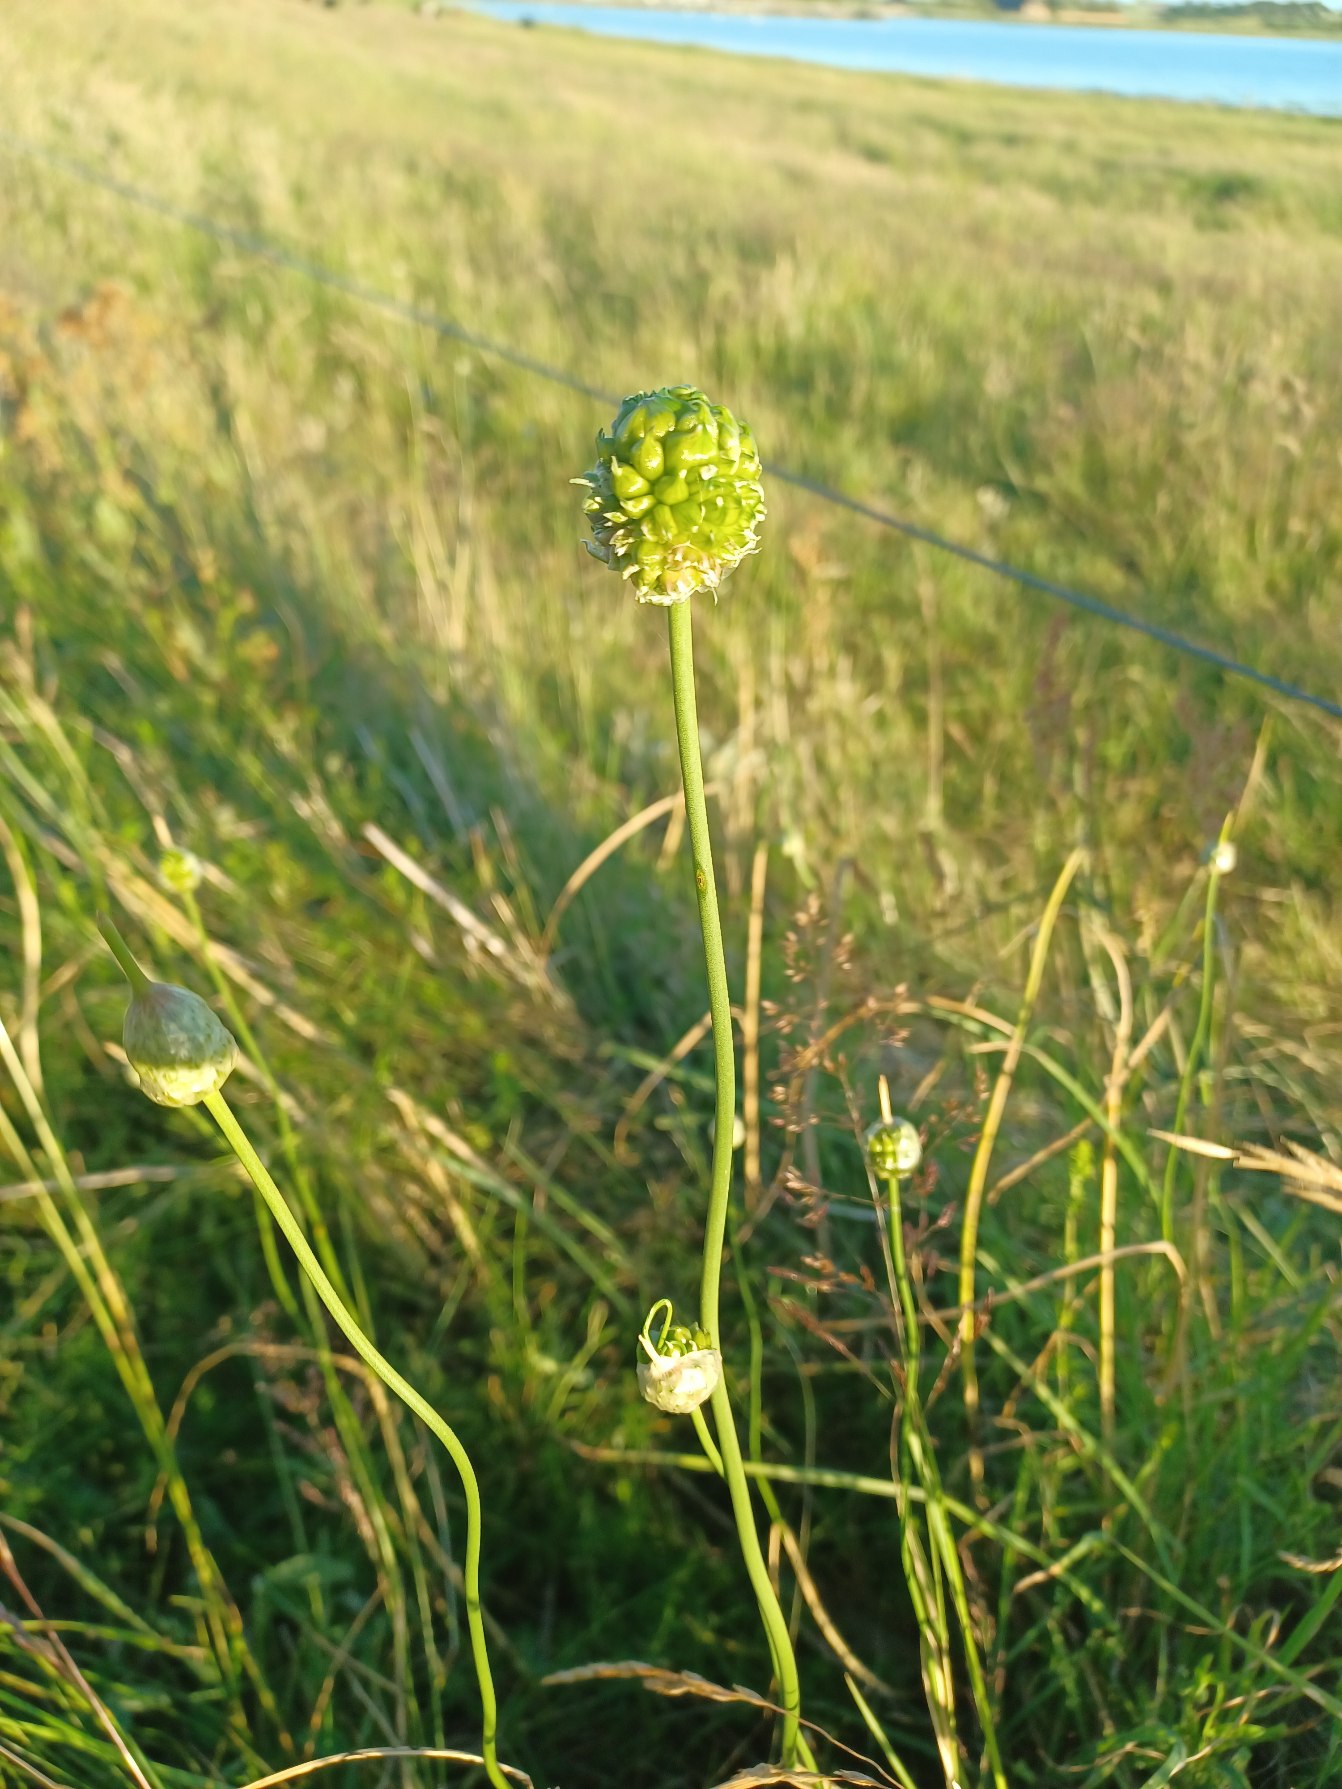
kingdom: Plantae
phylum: Tracheophyta
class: Liliopsida
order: Asparagales
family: Amaryllidaceae
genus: Allium
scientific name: Allium vineale
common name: Sand-løg
